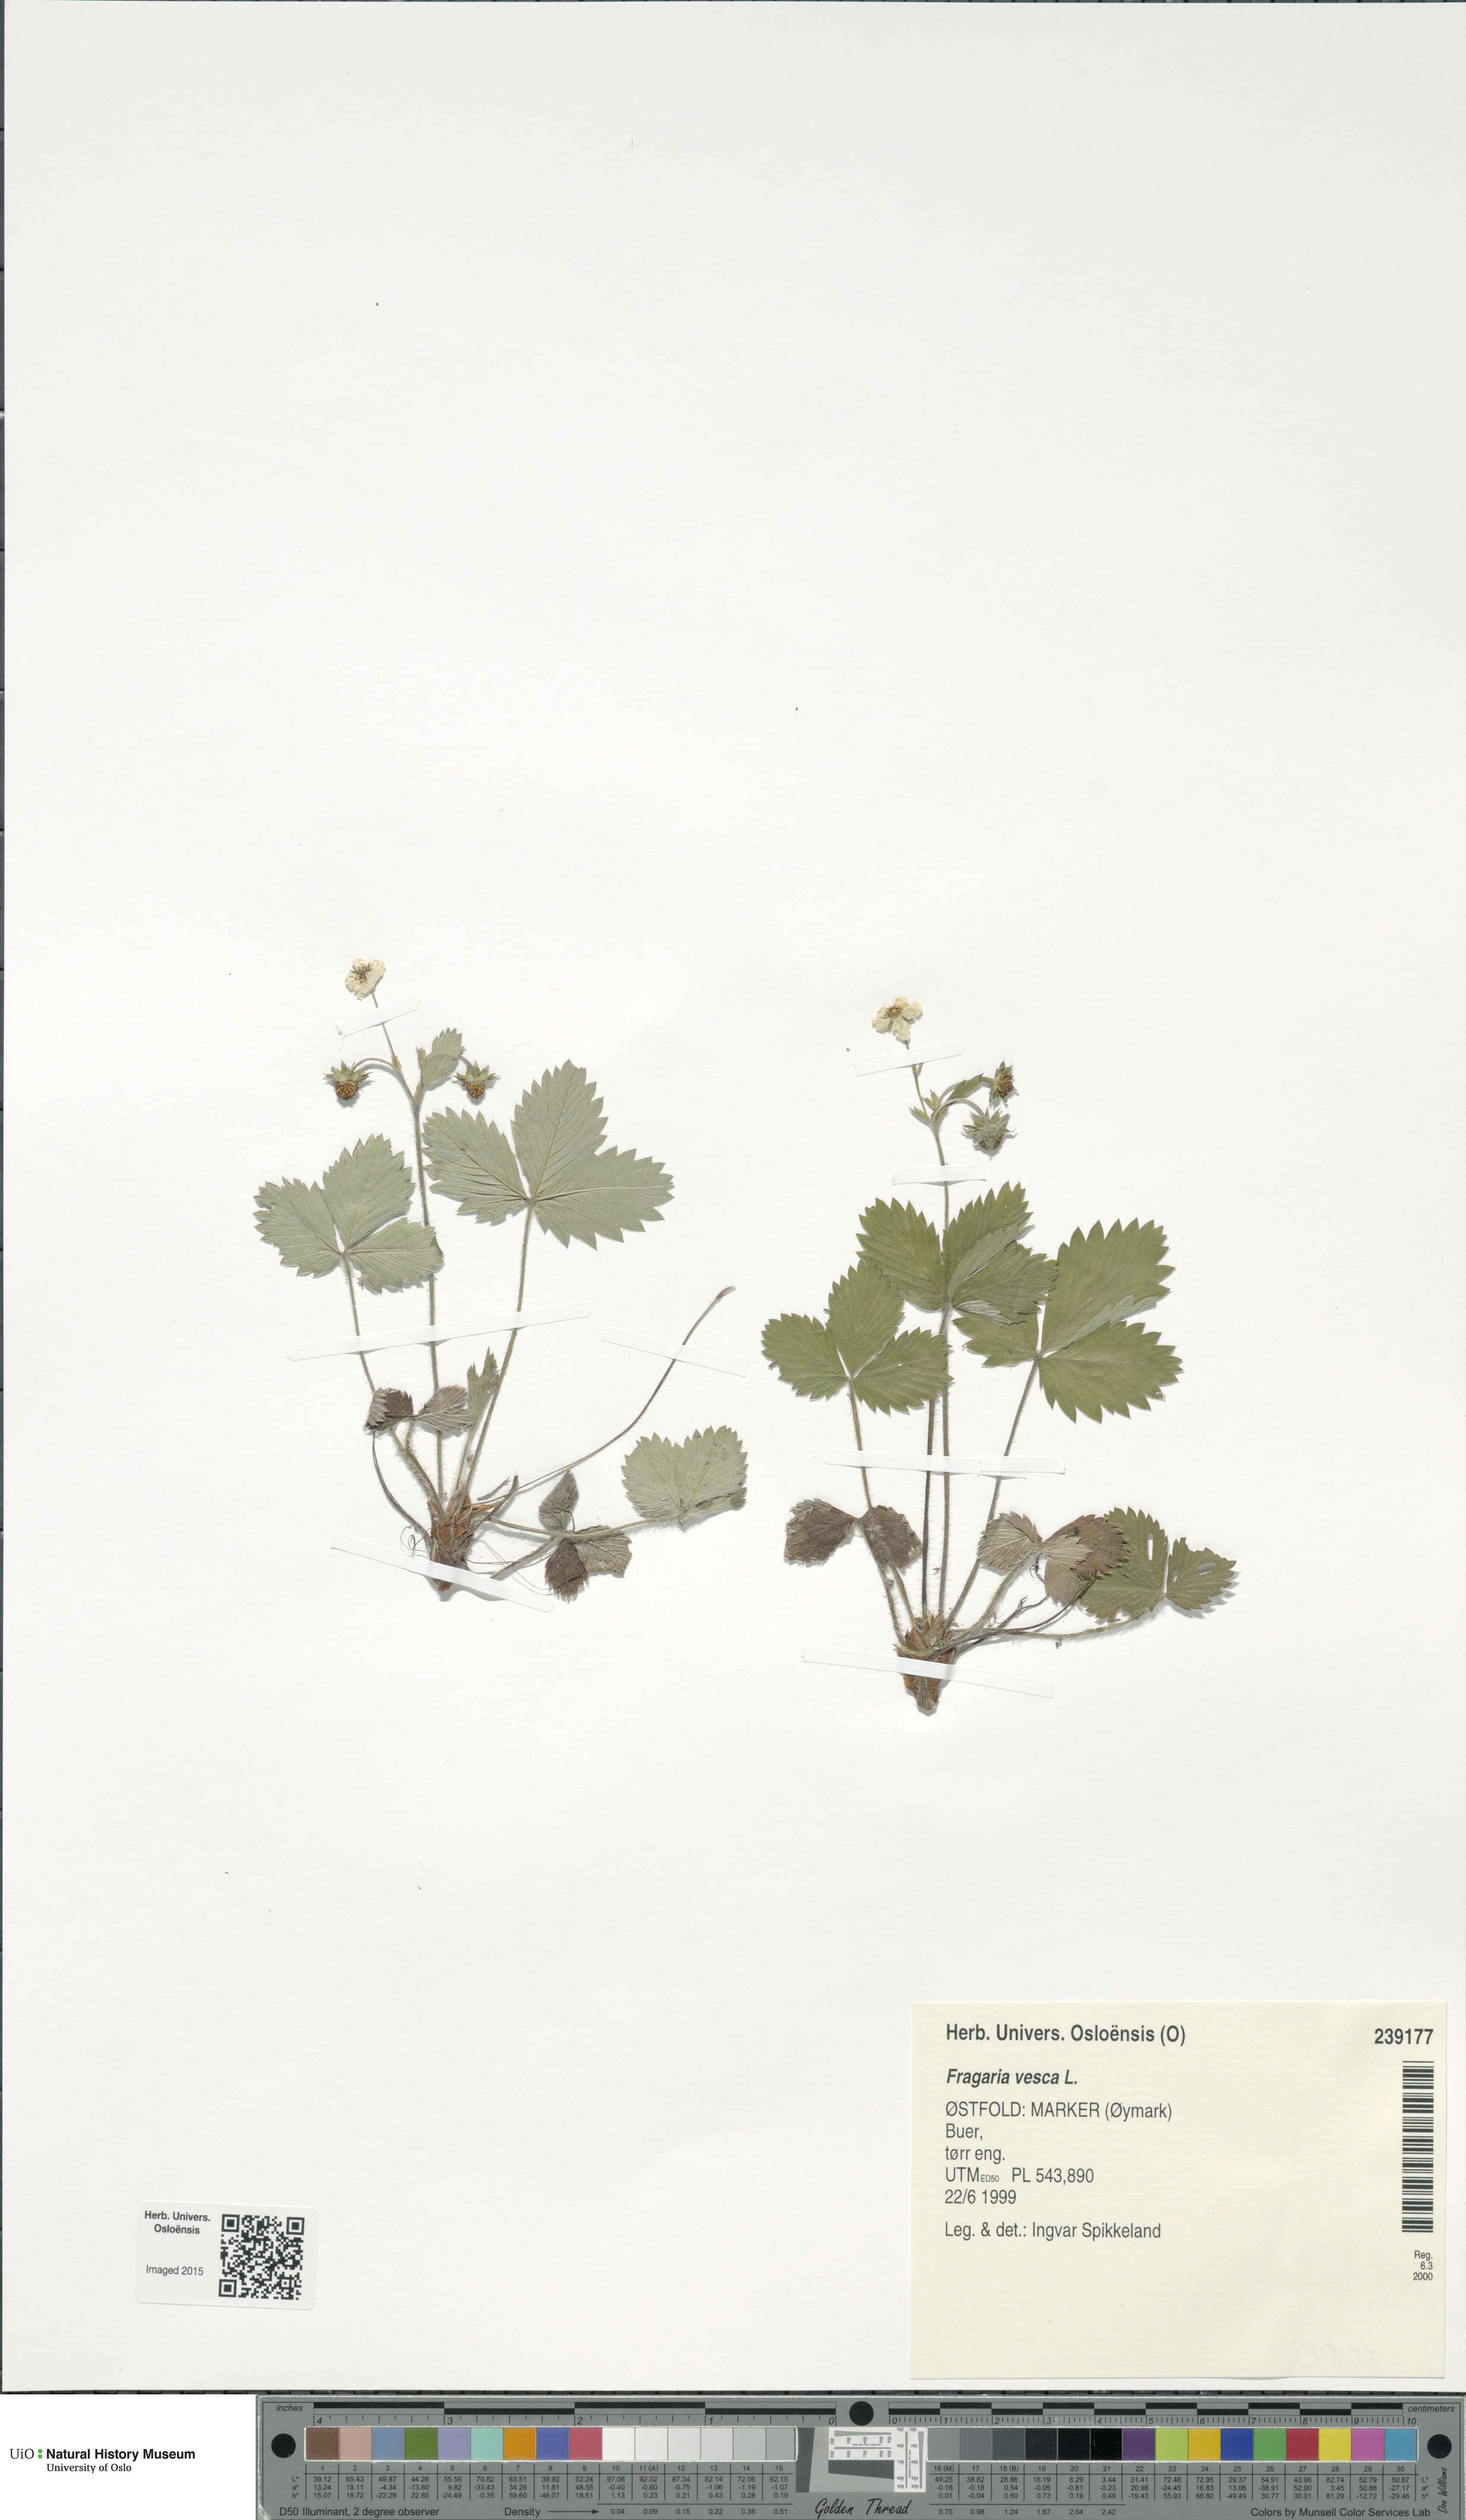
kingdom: Plantae
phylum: Tracheophyta
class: Magnoliopsida
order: Rosales
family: Rosaceae
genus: Fragaria
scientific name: Fragaria vesca
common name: Wild strawberry
